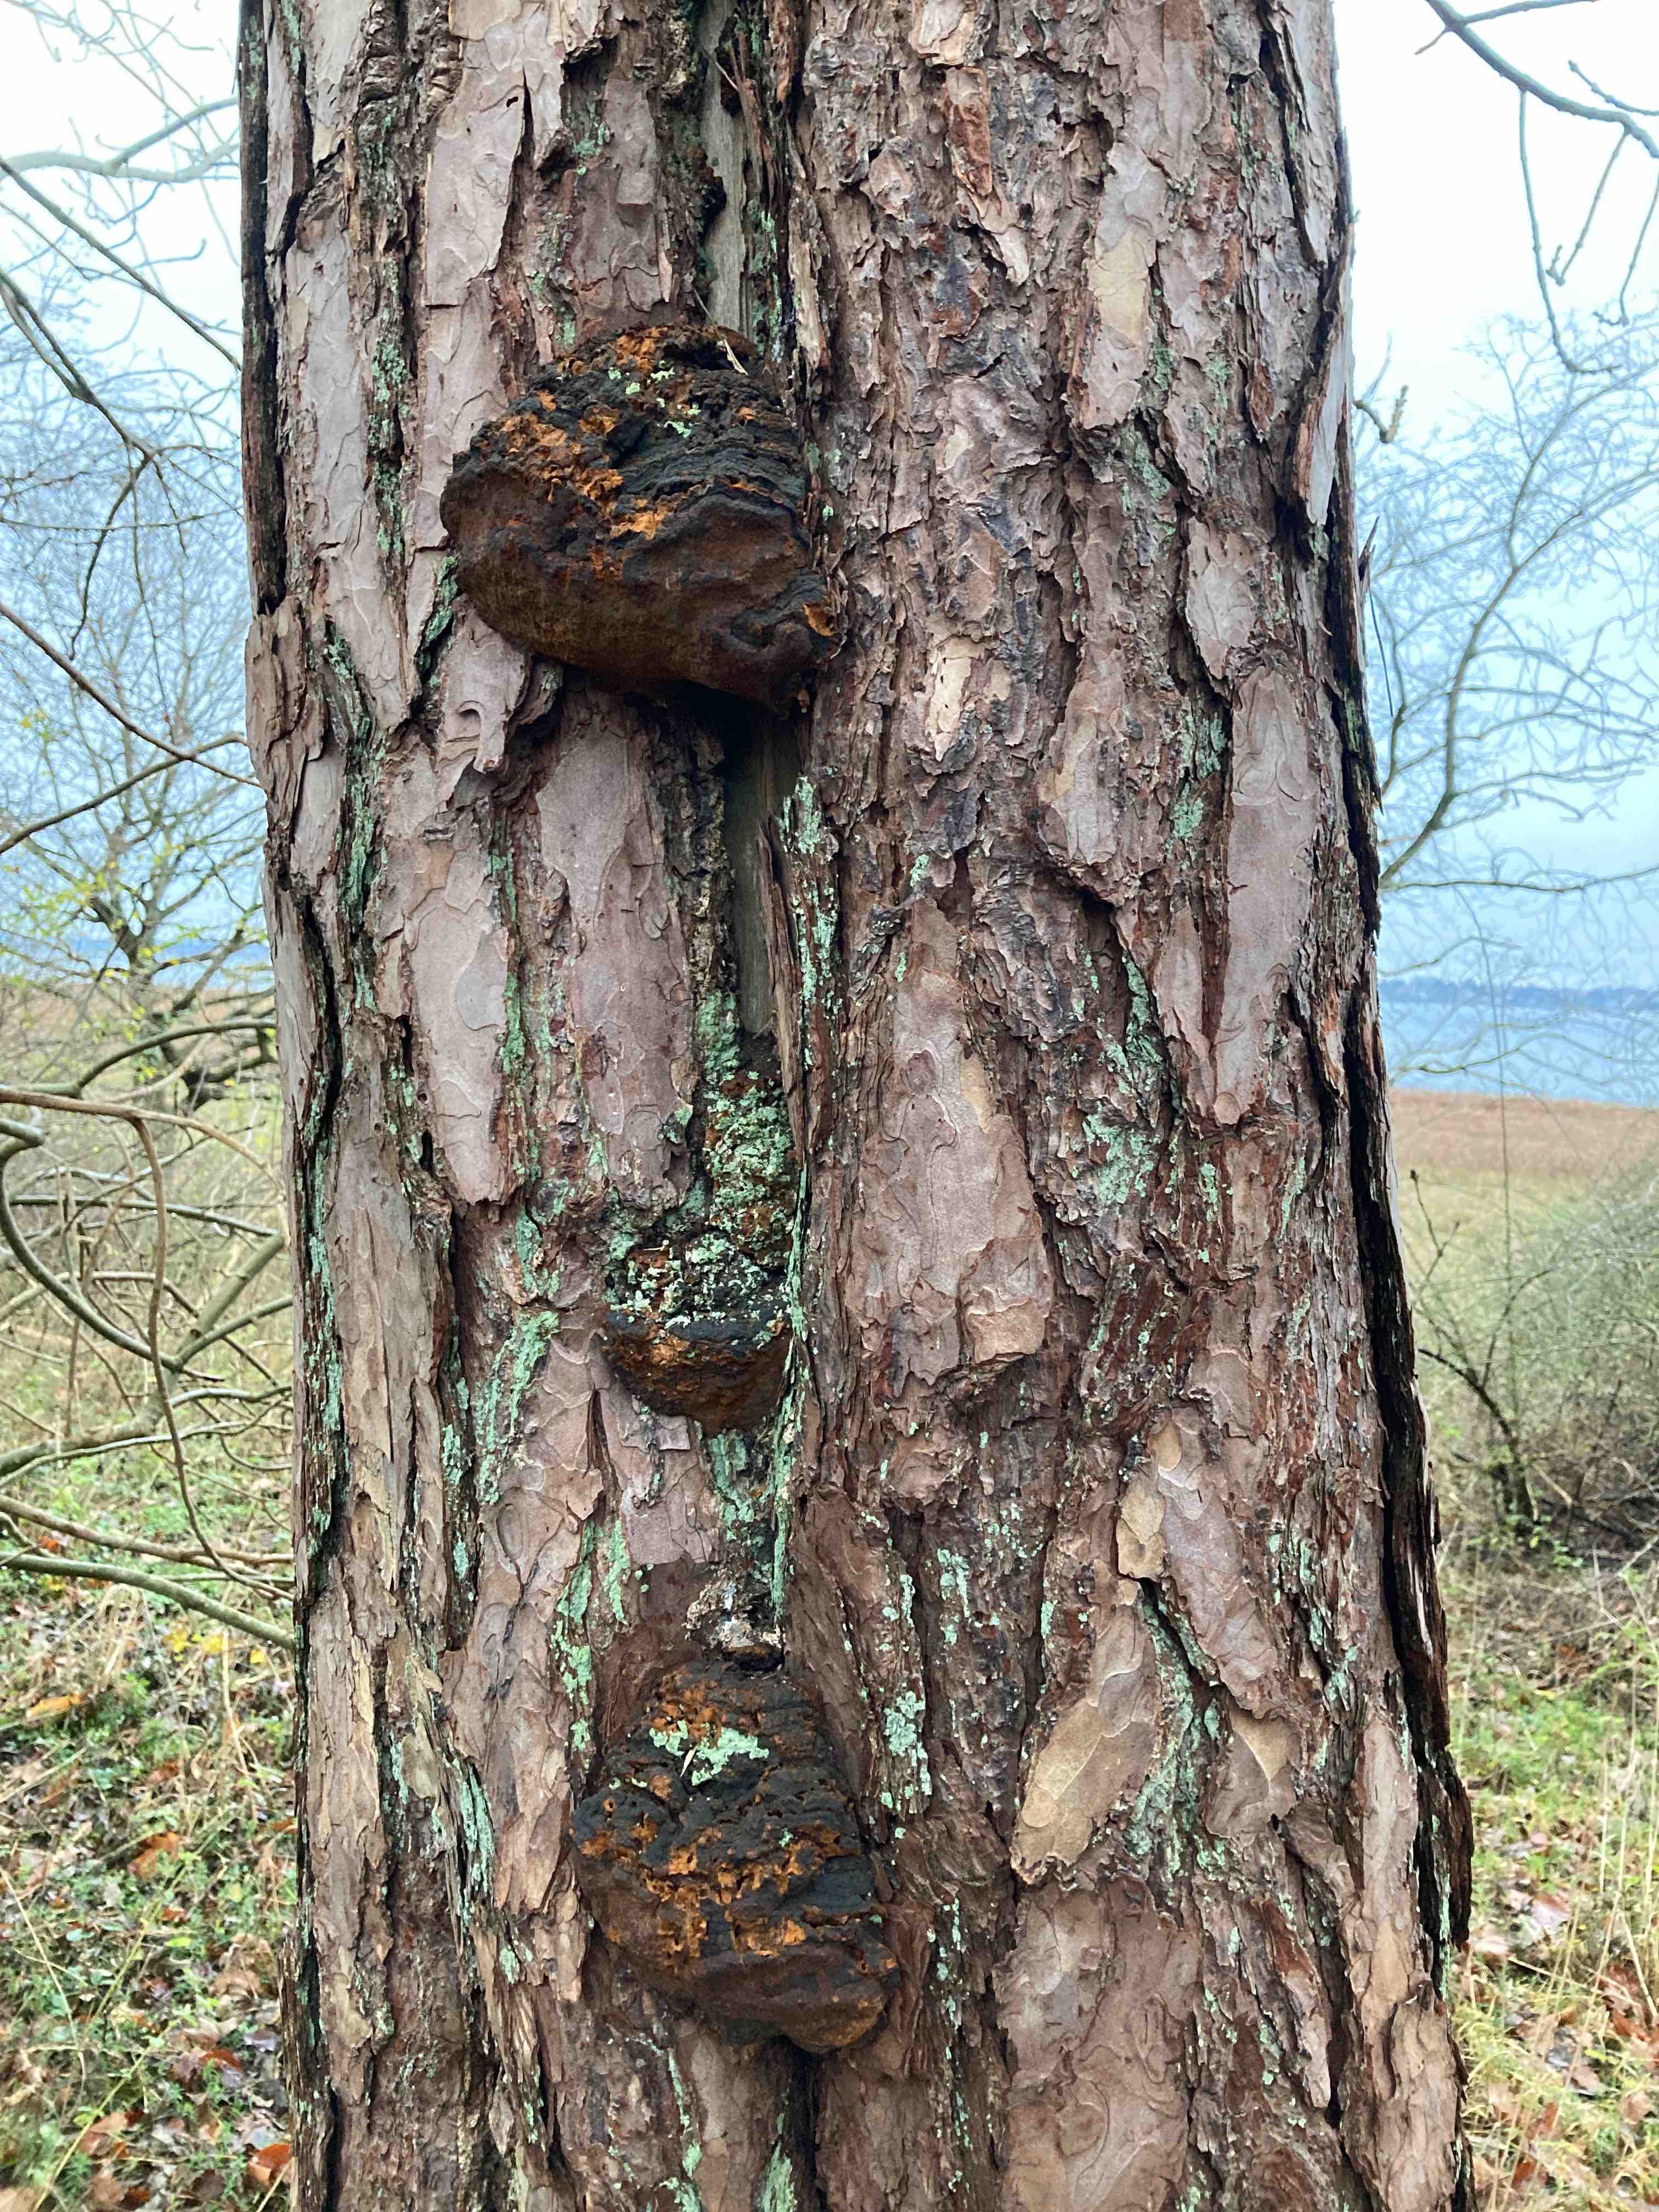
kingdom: Fungi
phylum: Basidiomycota
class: Agaricomycetes
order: Hymenochaetales
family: Hymenochaetaceae
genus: Porodaedalea
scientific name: Porodaedalea pini
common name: fyrre-ildporesvamp
